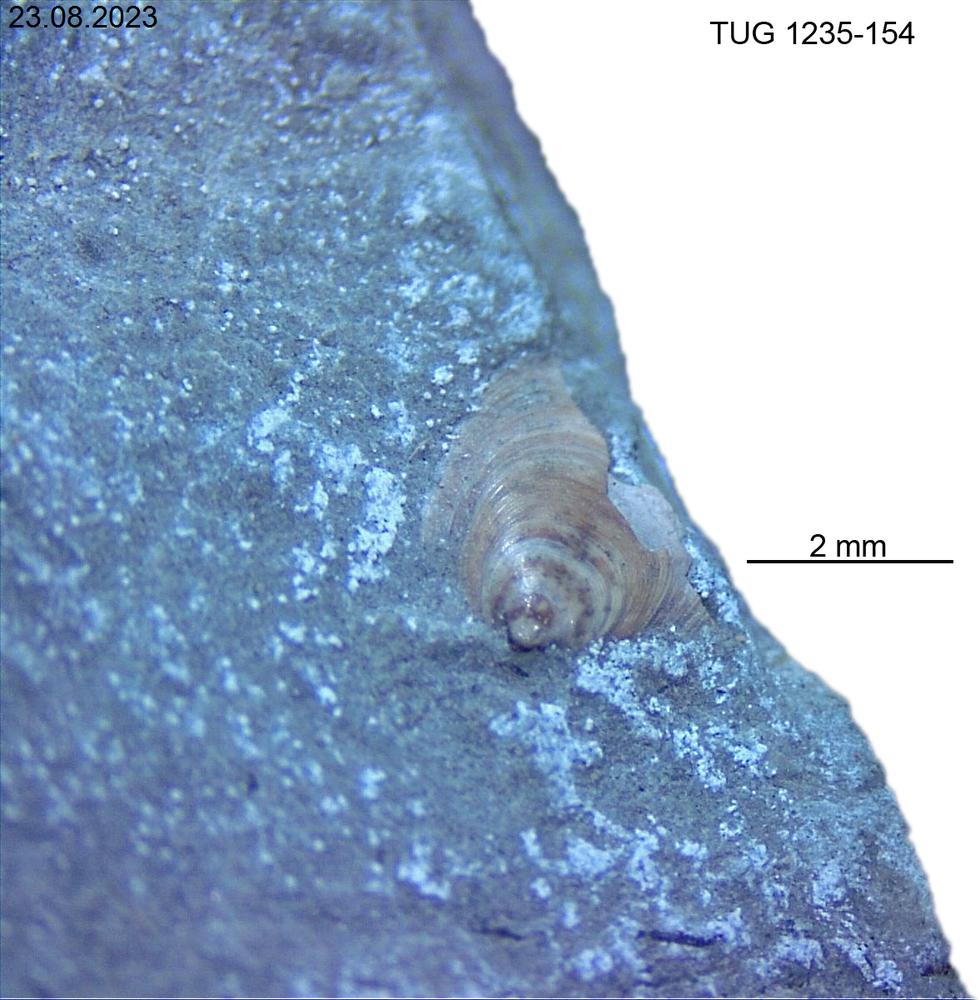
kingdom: Animalia
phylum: Brachiopoda
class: Lingulata
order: Lingulida
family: Pseudolingulidae
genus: Pseudolingula
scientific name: Pseudolingula
